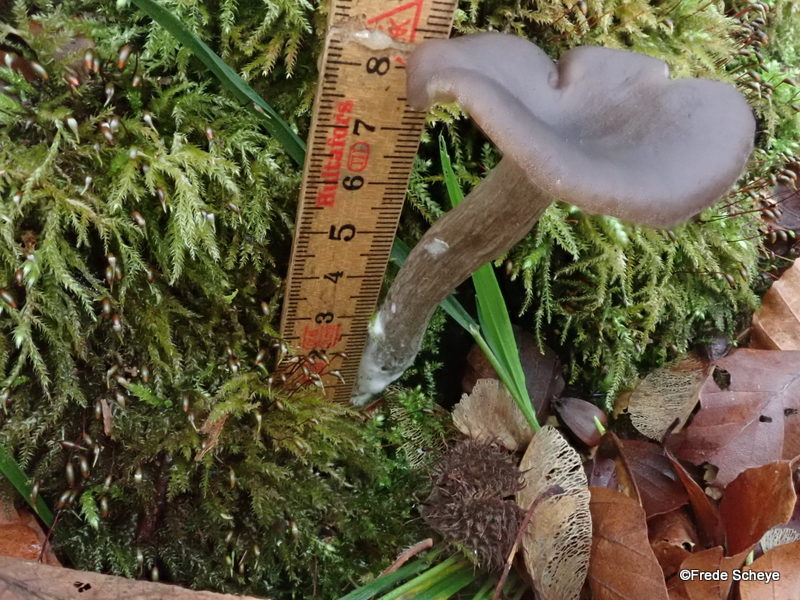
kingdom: Fungi
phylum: Basidiomycota
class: Agaricomycetes
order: Agaricales
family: Pseudoclitocybaceae
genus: Pseudoclitocybe
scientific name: Pseudoclitocybe cyathiformis
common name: almindelig bægertragthat
